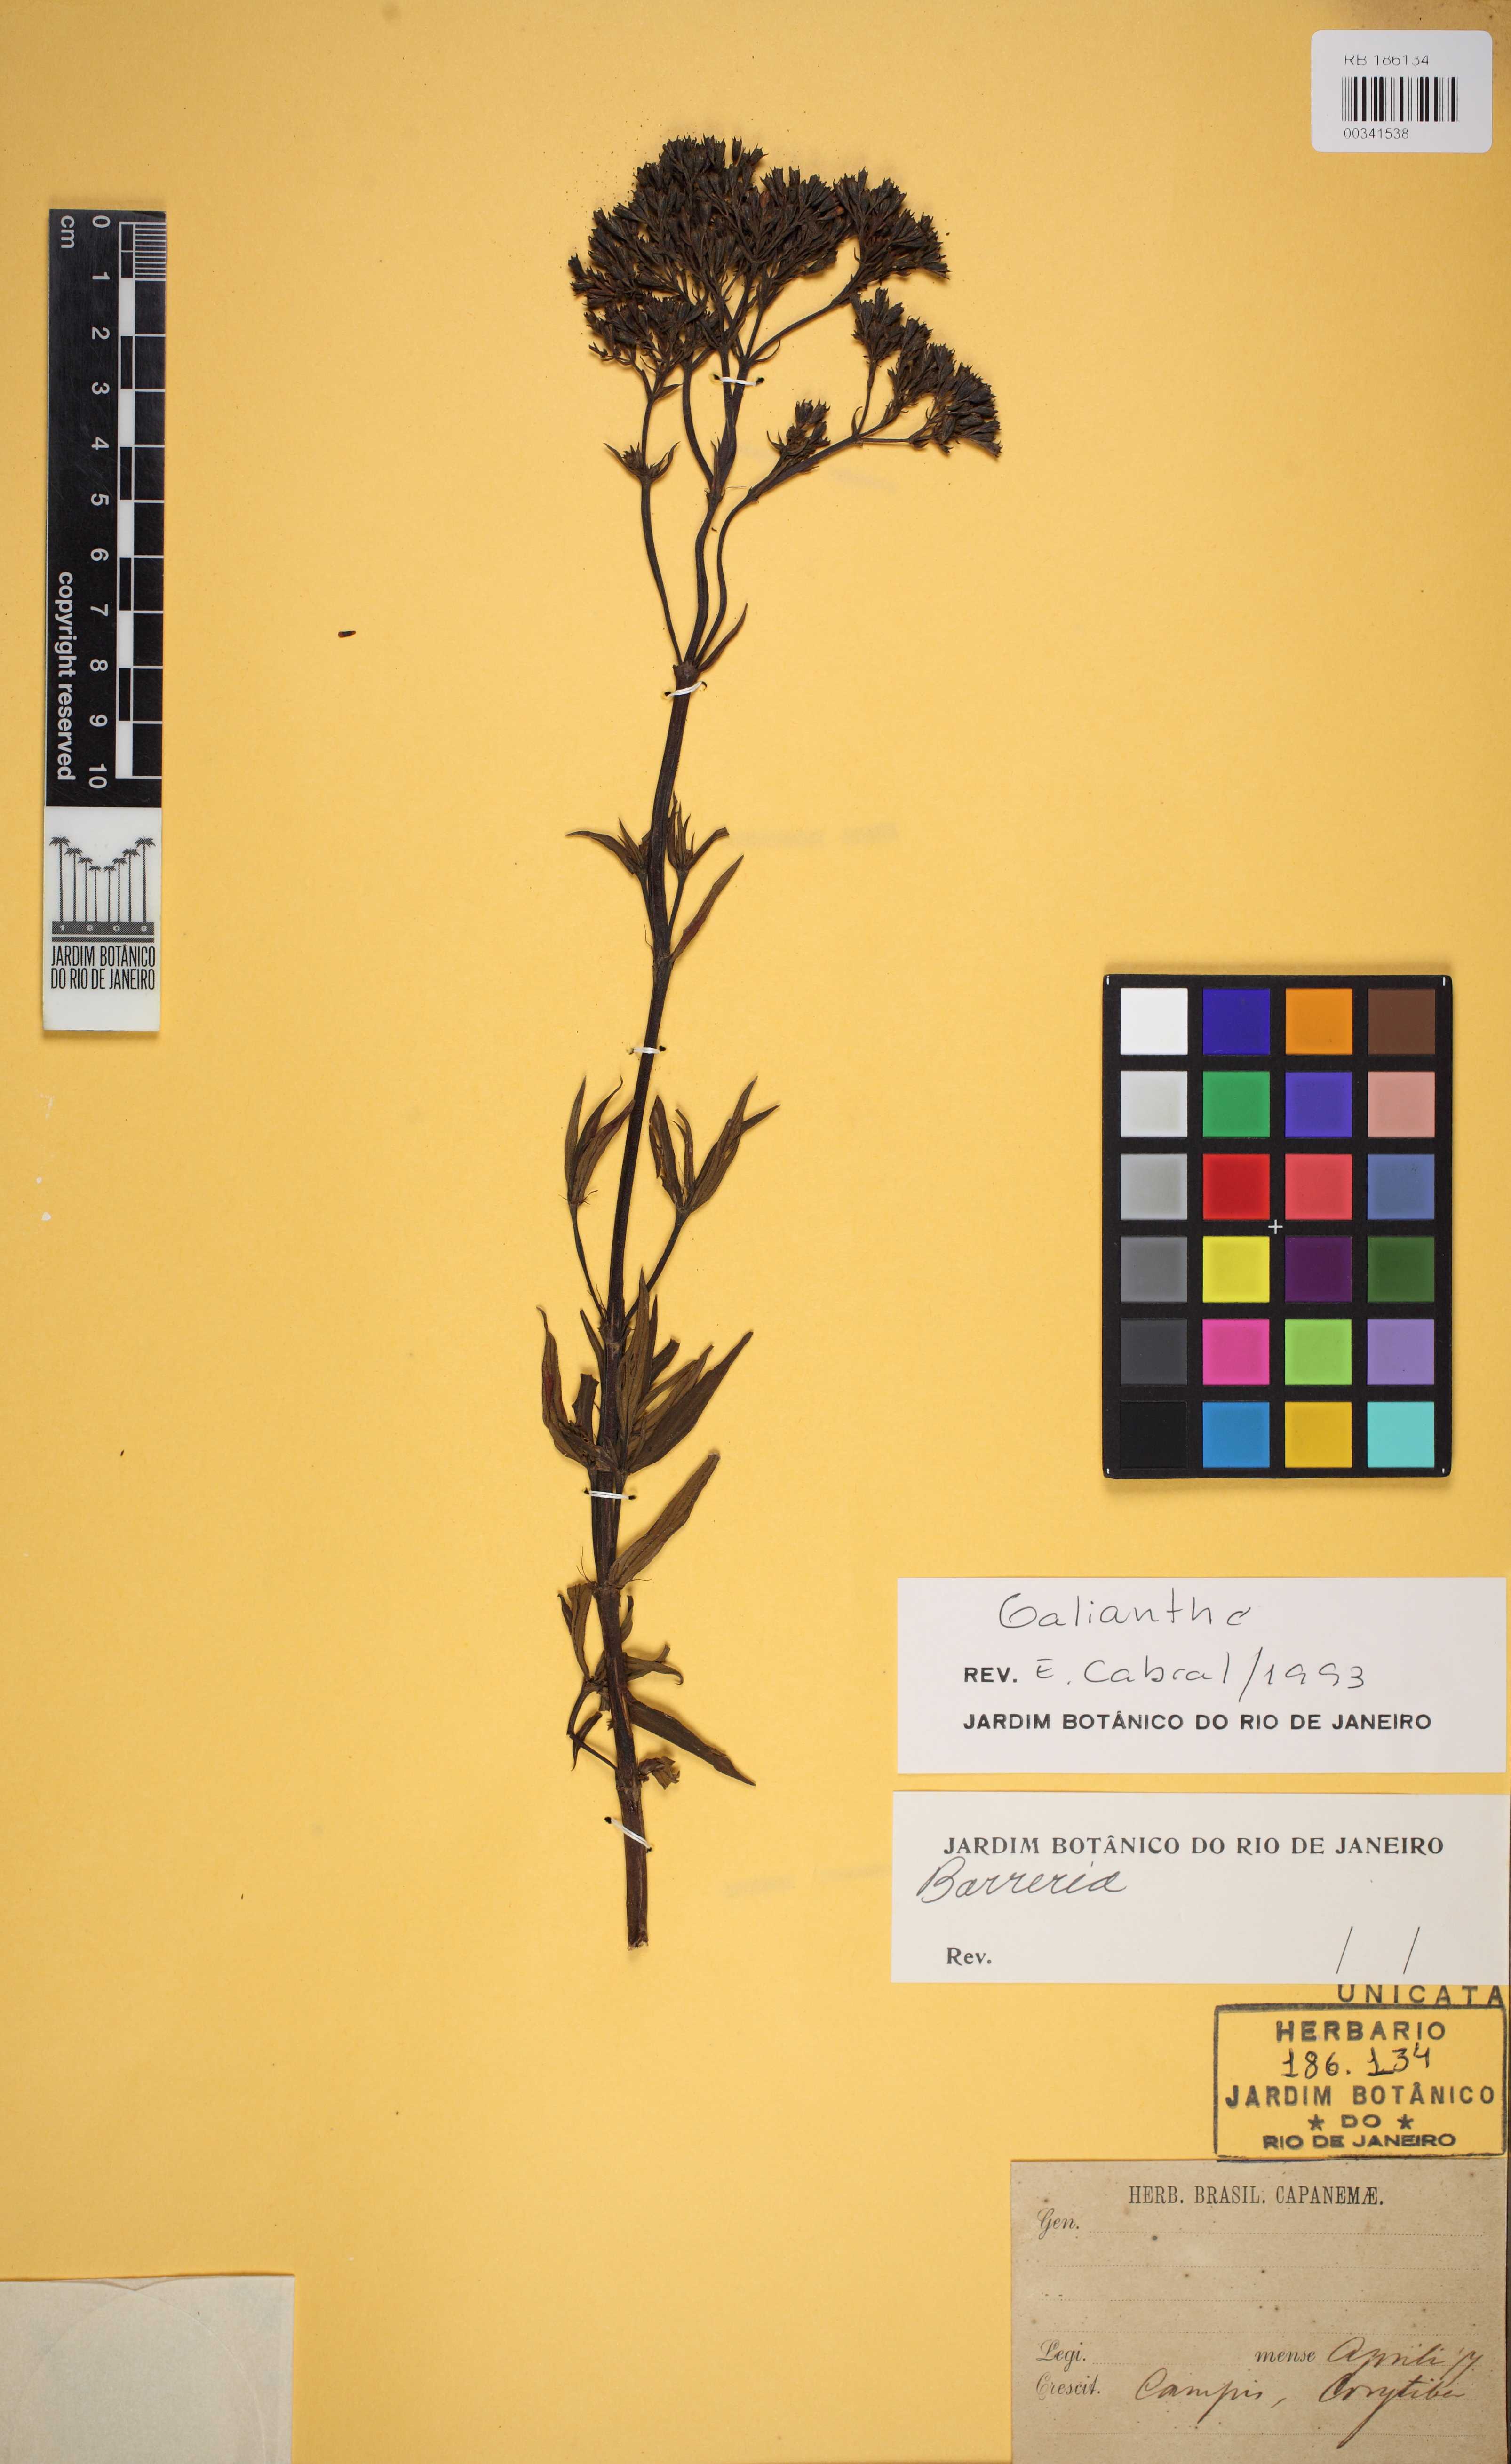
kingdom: Plantae
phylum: Tracheophyta
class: Magnoliopsida
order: Gentianales
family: Rubiaceae
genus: Ladenbergia
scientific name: Ladenbergia oblongifolia
